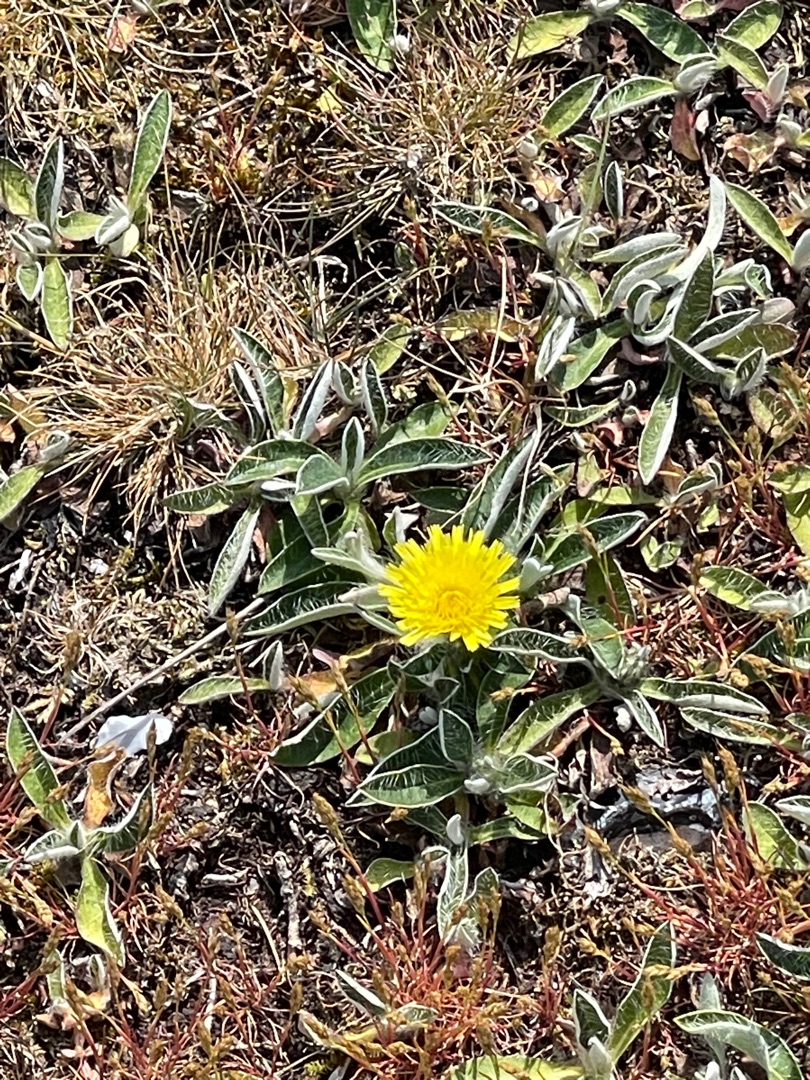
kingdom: Plantae
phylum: Tracheophyta
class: Magnoliopsida
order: Asterales
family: Asteraceae
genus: Pilosella
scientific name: Pilosella officinarum
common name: Håret høgeurt
